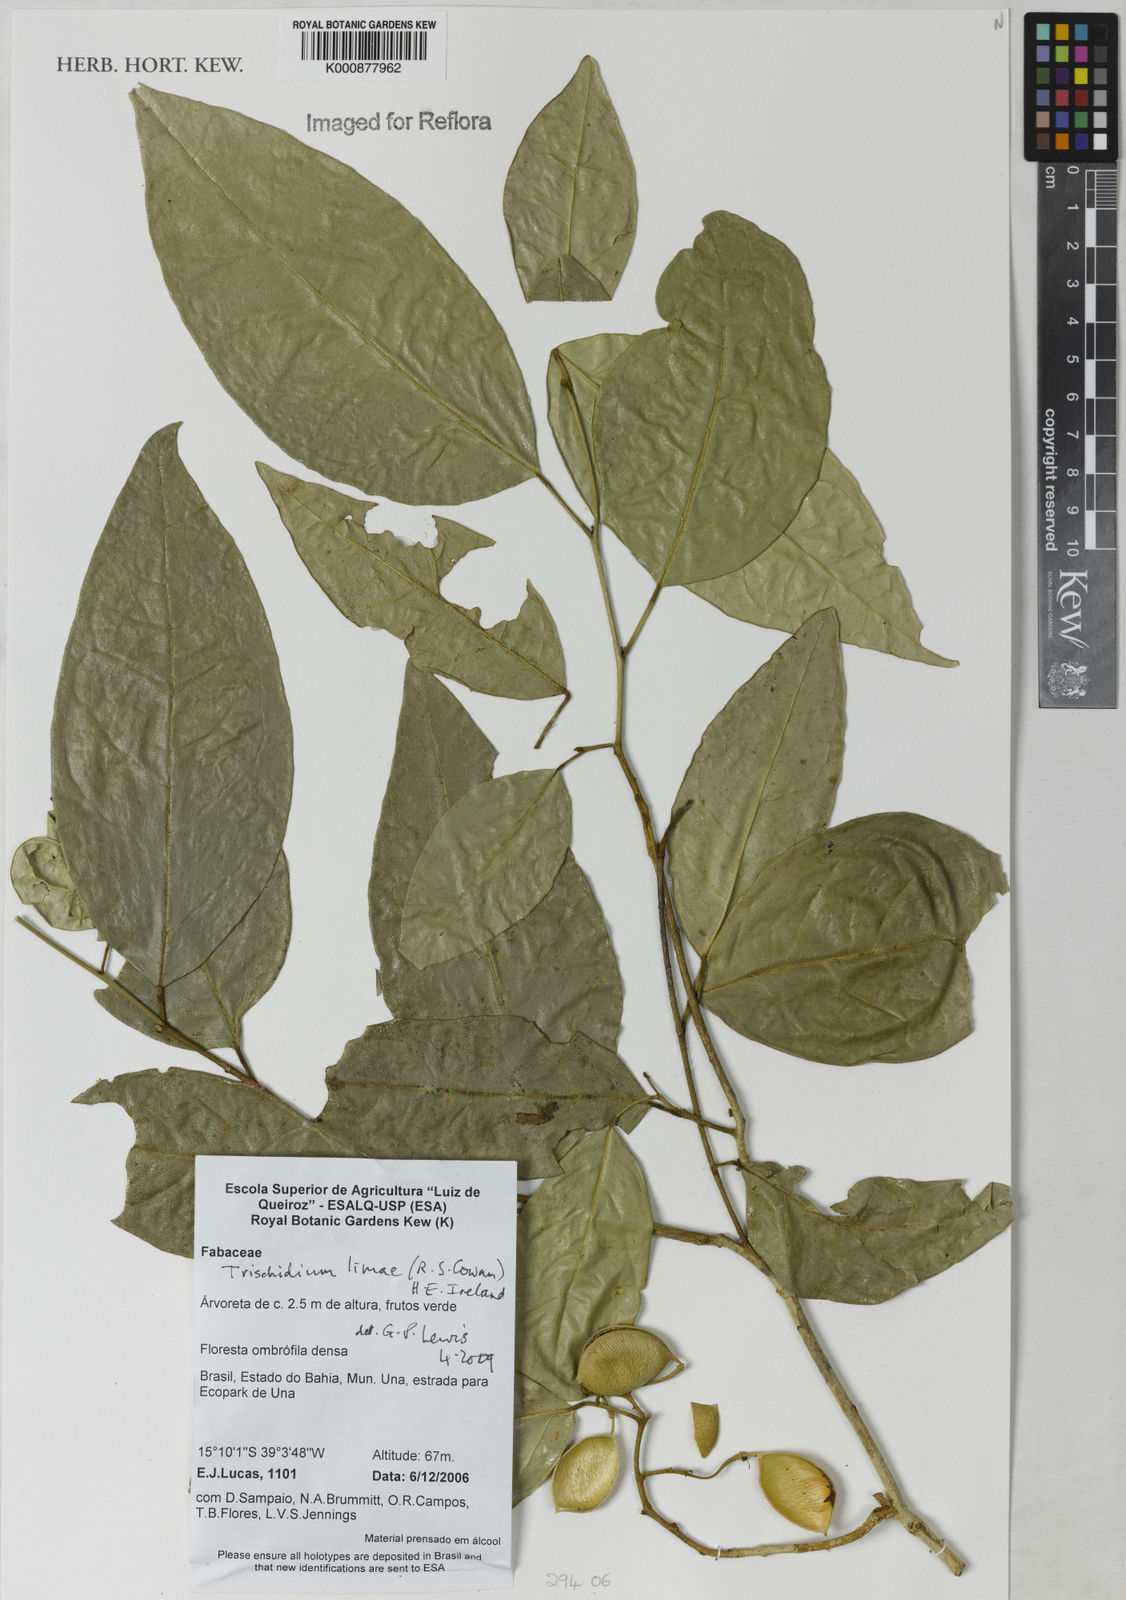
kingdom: Plantae
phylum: Tracheophyta
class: Magnoliopsida
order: Fabales
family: Fabaceae
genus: Trischidium
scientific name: Trischidium limae
